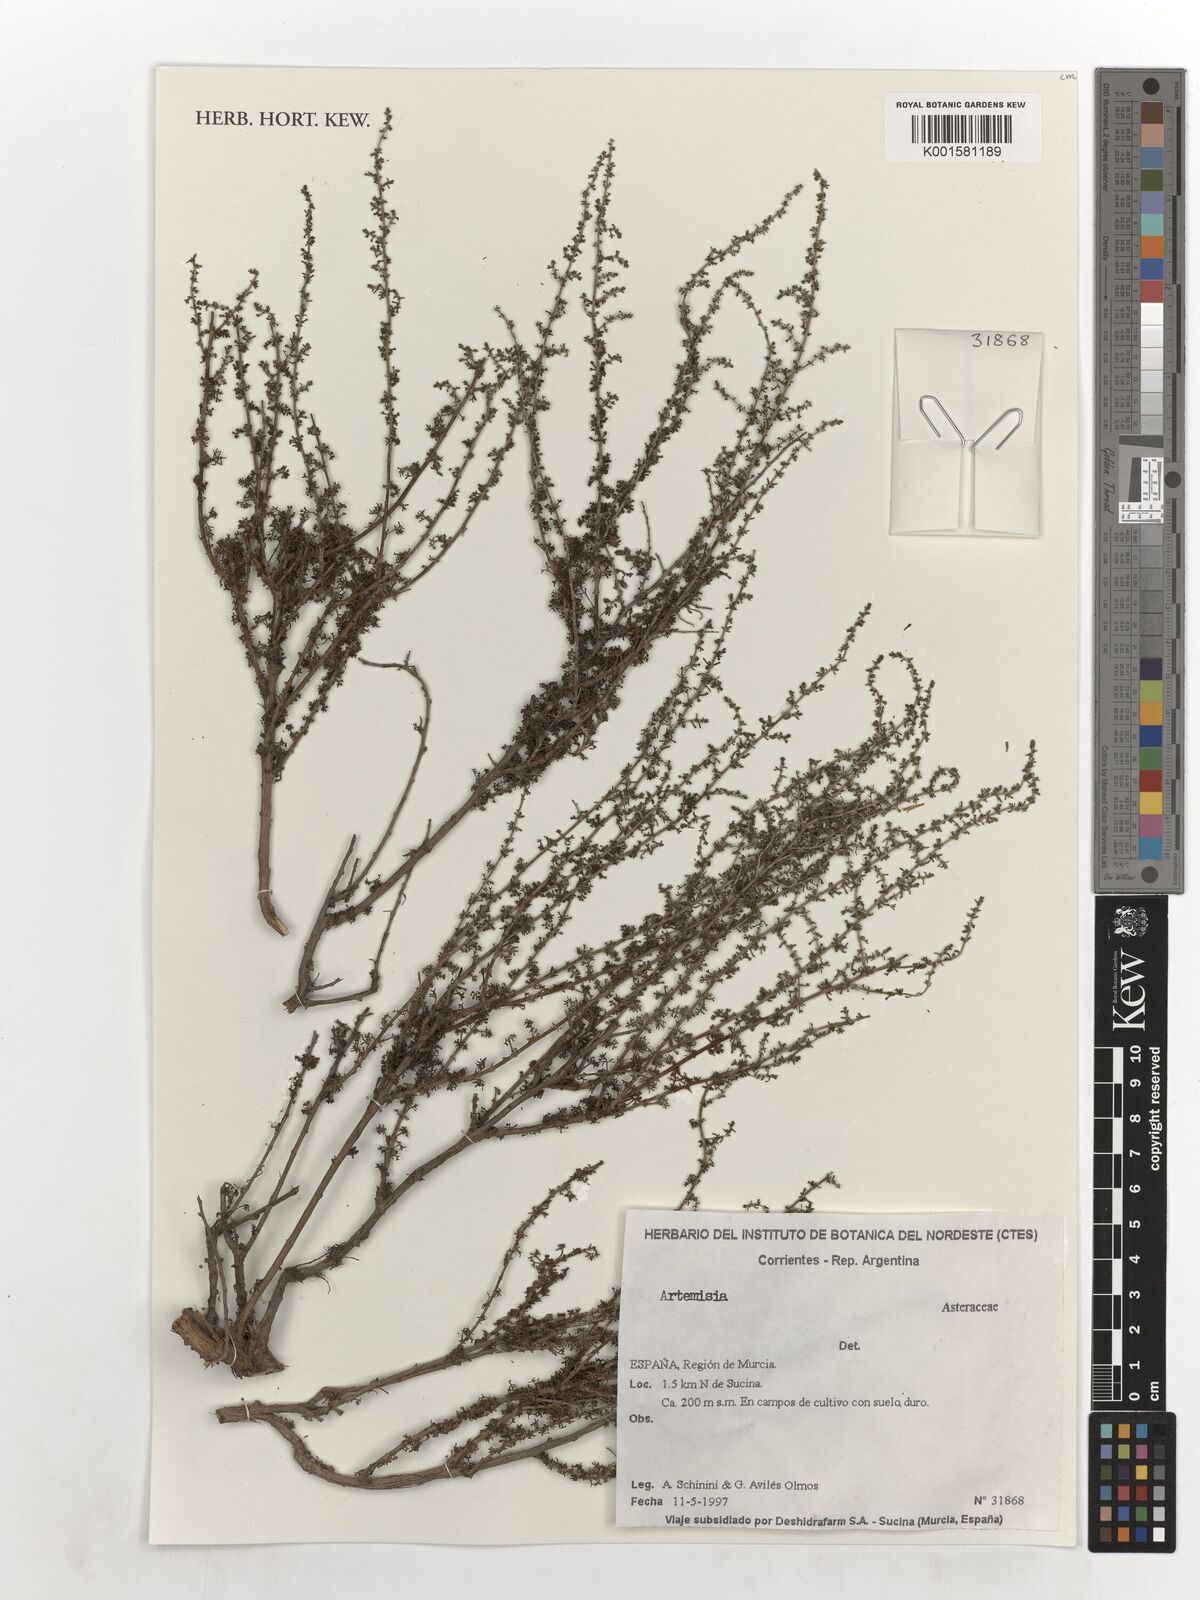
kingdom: Plantae
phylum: Tracheophyta
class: Magnoliopsida
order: Asterales
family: Asteraceae
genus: Artemisia
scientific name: Artemisia
